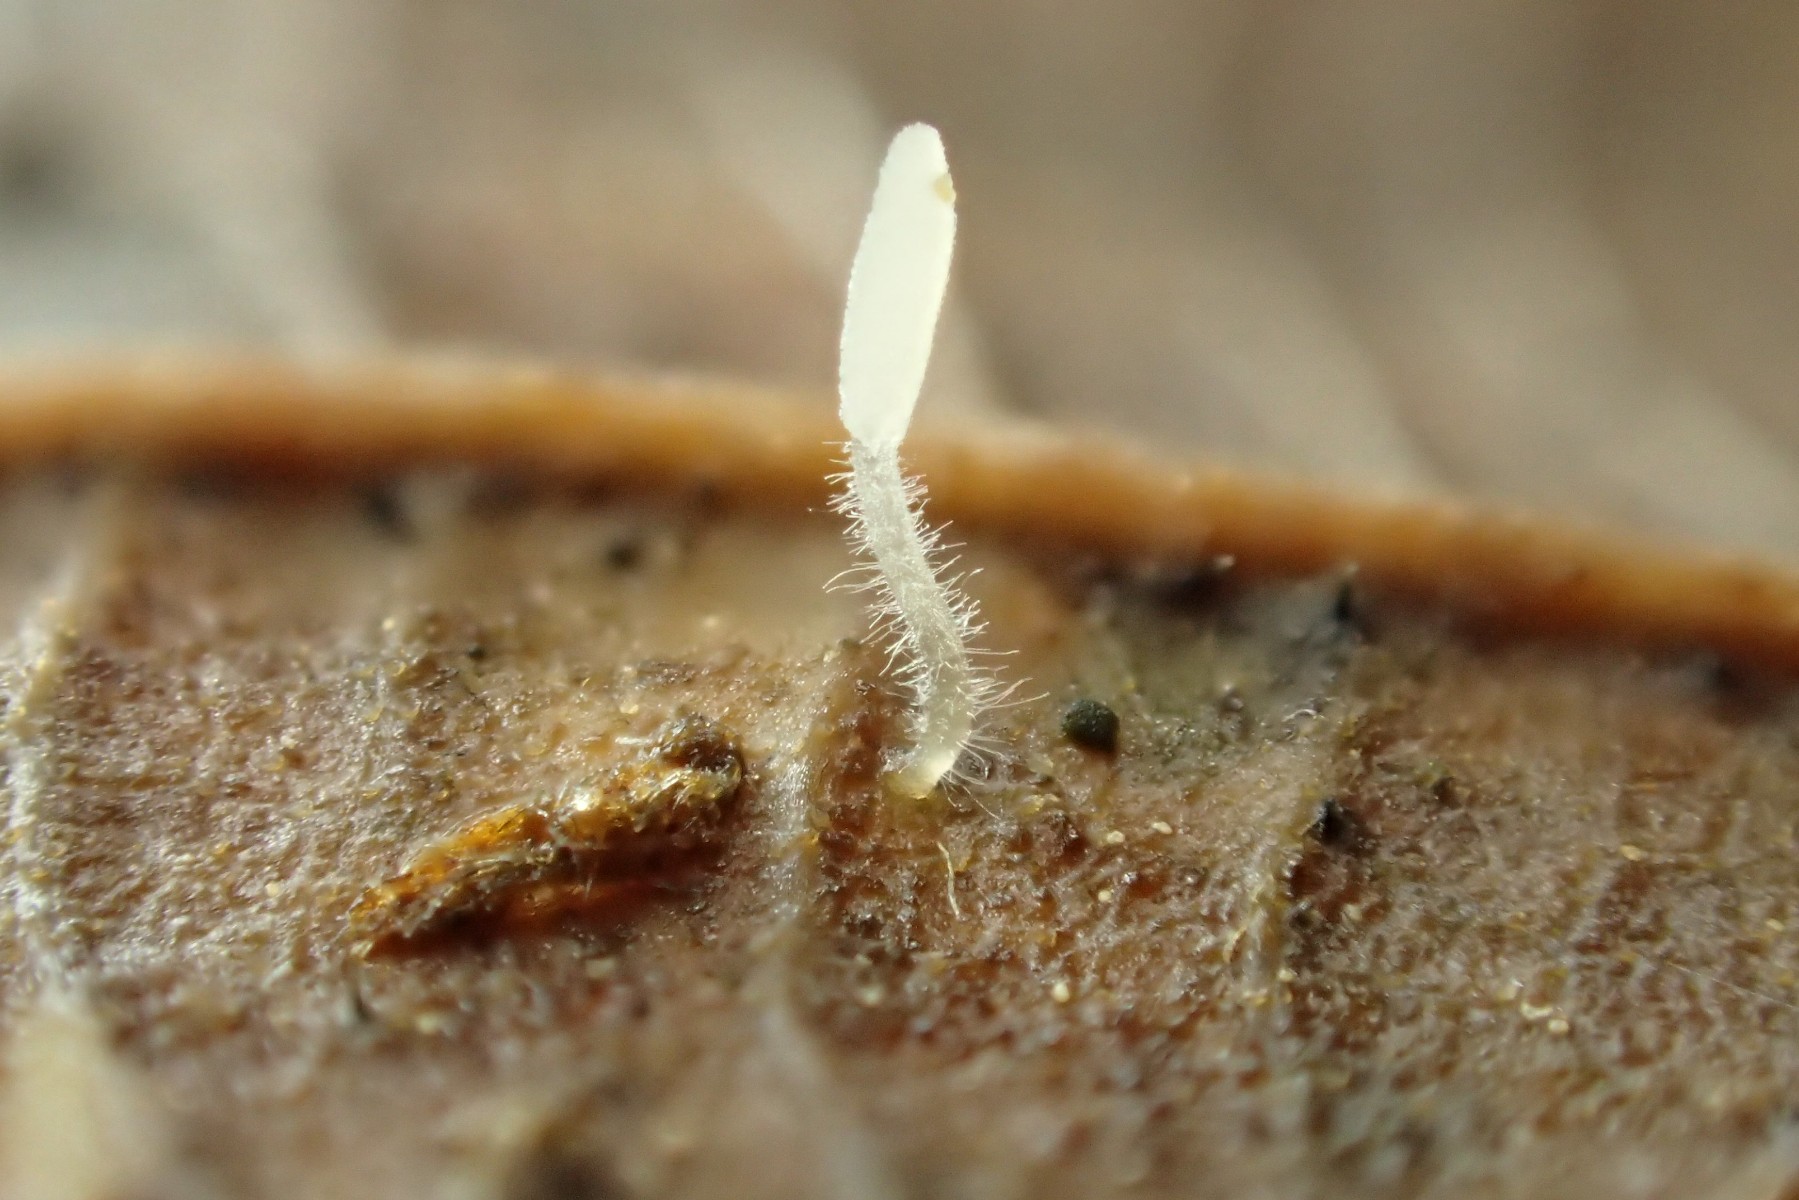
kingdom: Fungi
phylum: Basidiomycota
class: Agaricomycetes
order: Agaricales
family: Typhulaceae
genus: Typhula
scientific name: Typhula setipes
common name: liden trådkølle
